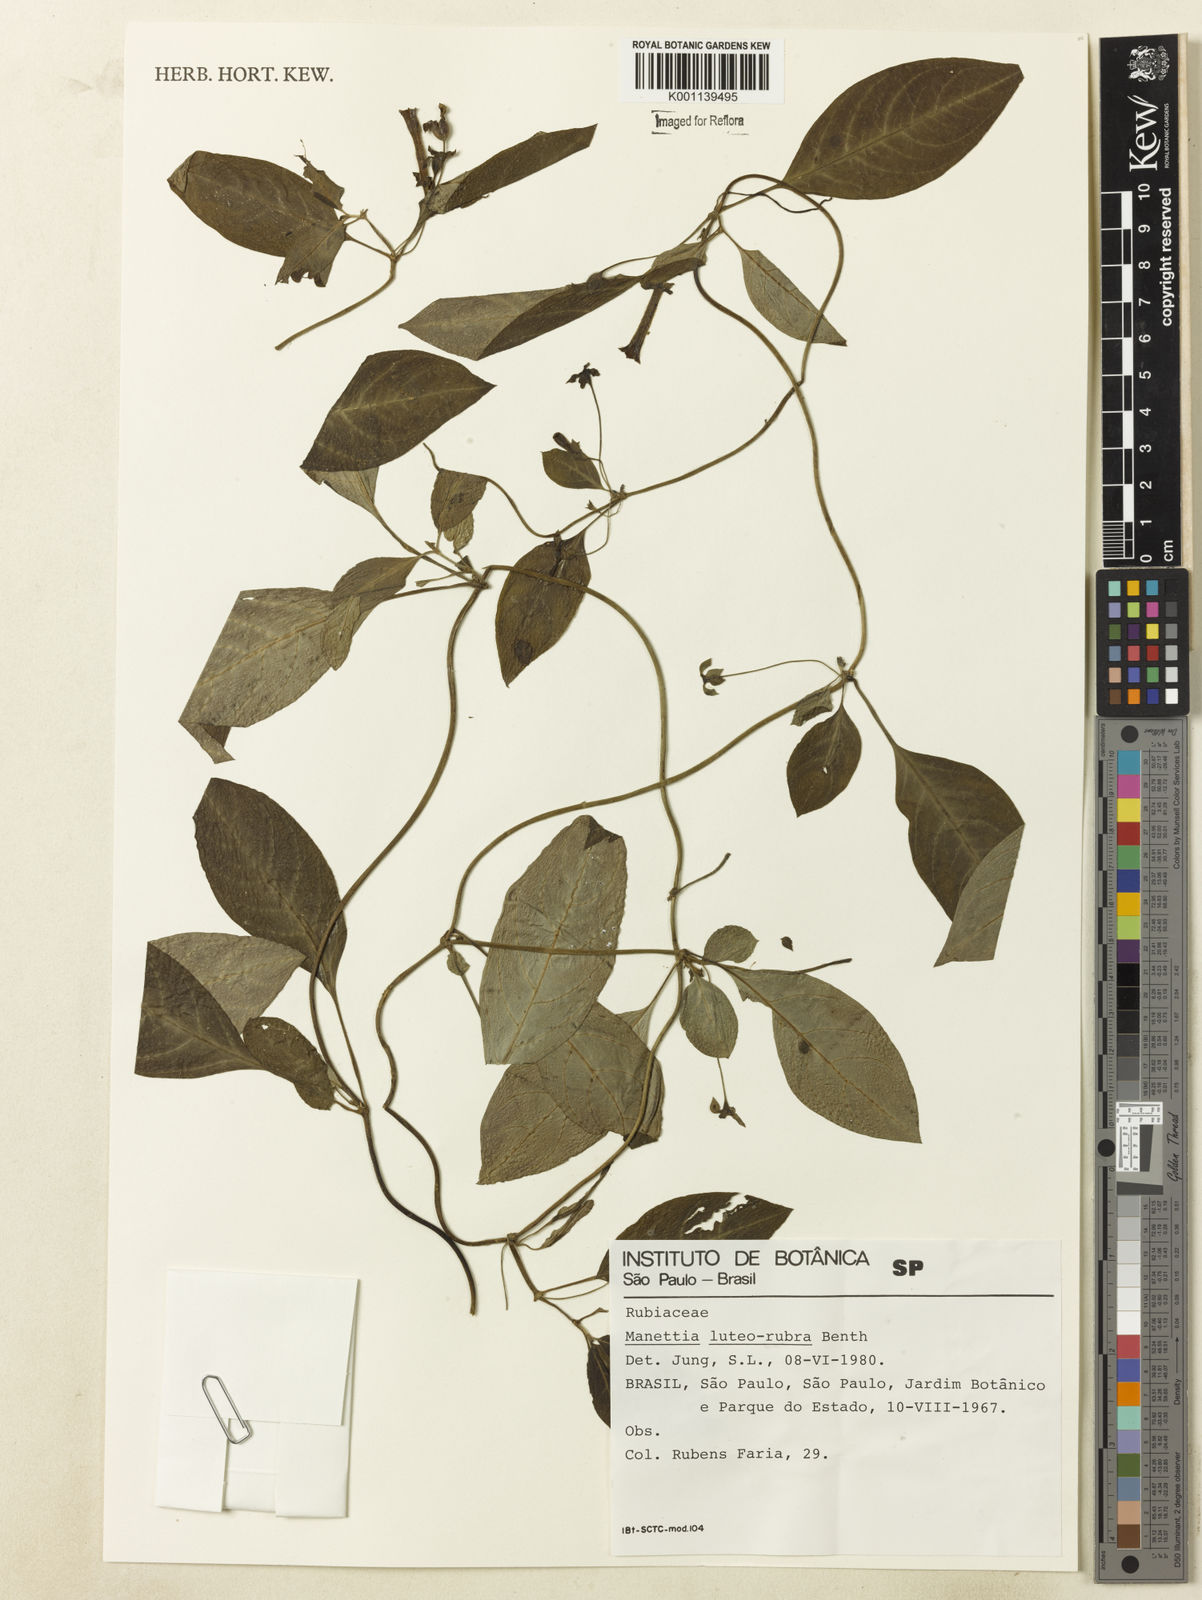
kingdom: Plantae
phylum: Tracheophyta
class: Magnoliopsida
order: Gentianales
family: Rubiaceae
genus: Manettia
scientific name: Manettia luteorubra
